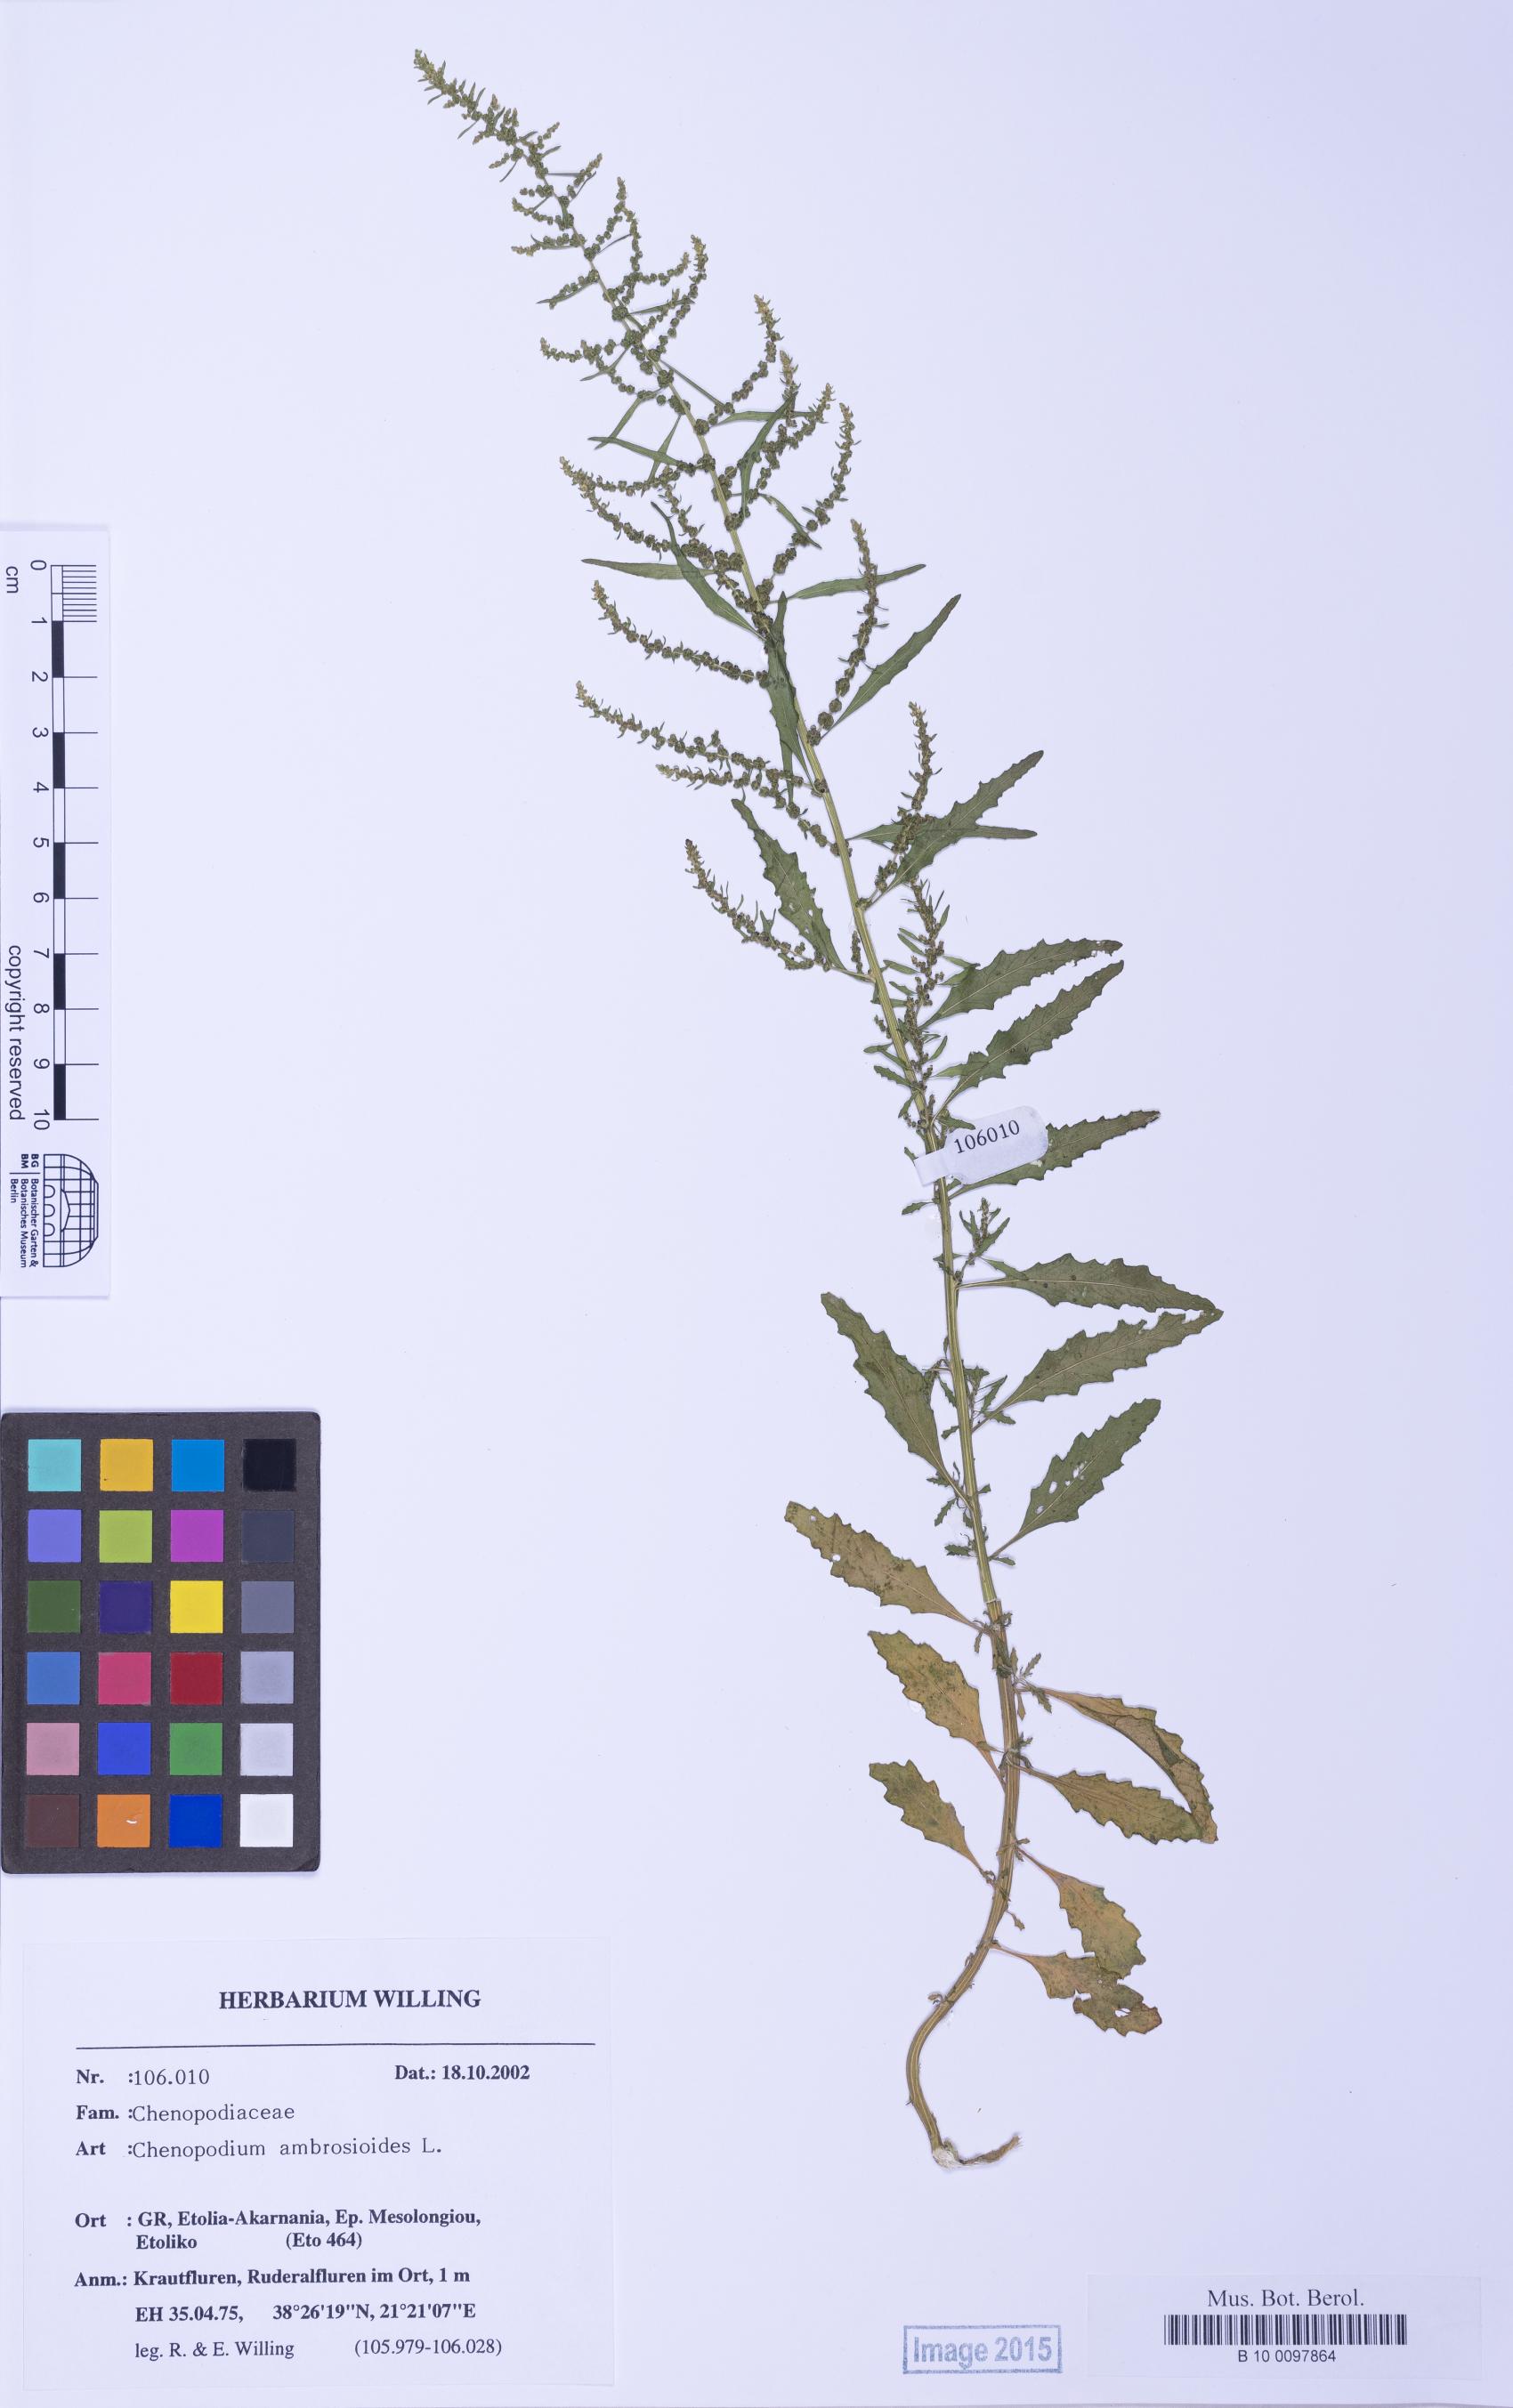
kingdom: Plantae
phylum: Tracheophyta
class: Magnoliopsida
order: Caryophyllales
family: Amaranthaceae
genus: Dysphania
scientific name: Dysphania ambrosioides
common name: Wormseed
